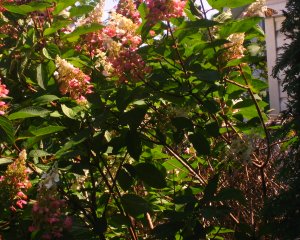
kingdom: Animalia
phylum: Arthropoda
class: Insecta
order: Lepidoptera
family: Nymphalidae
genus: Danaus
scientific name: Danaus plexippus
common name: Monarch
